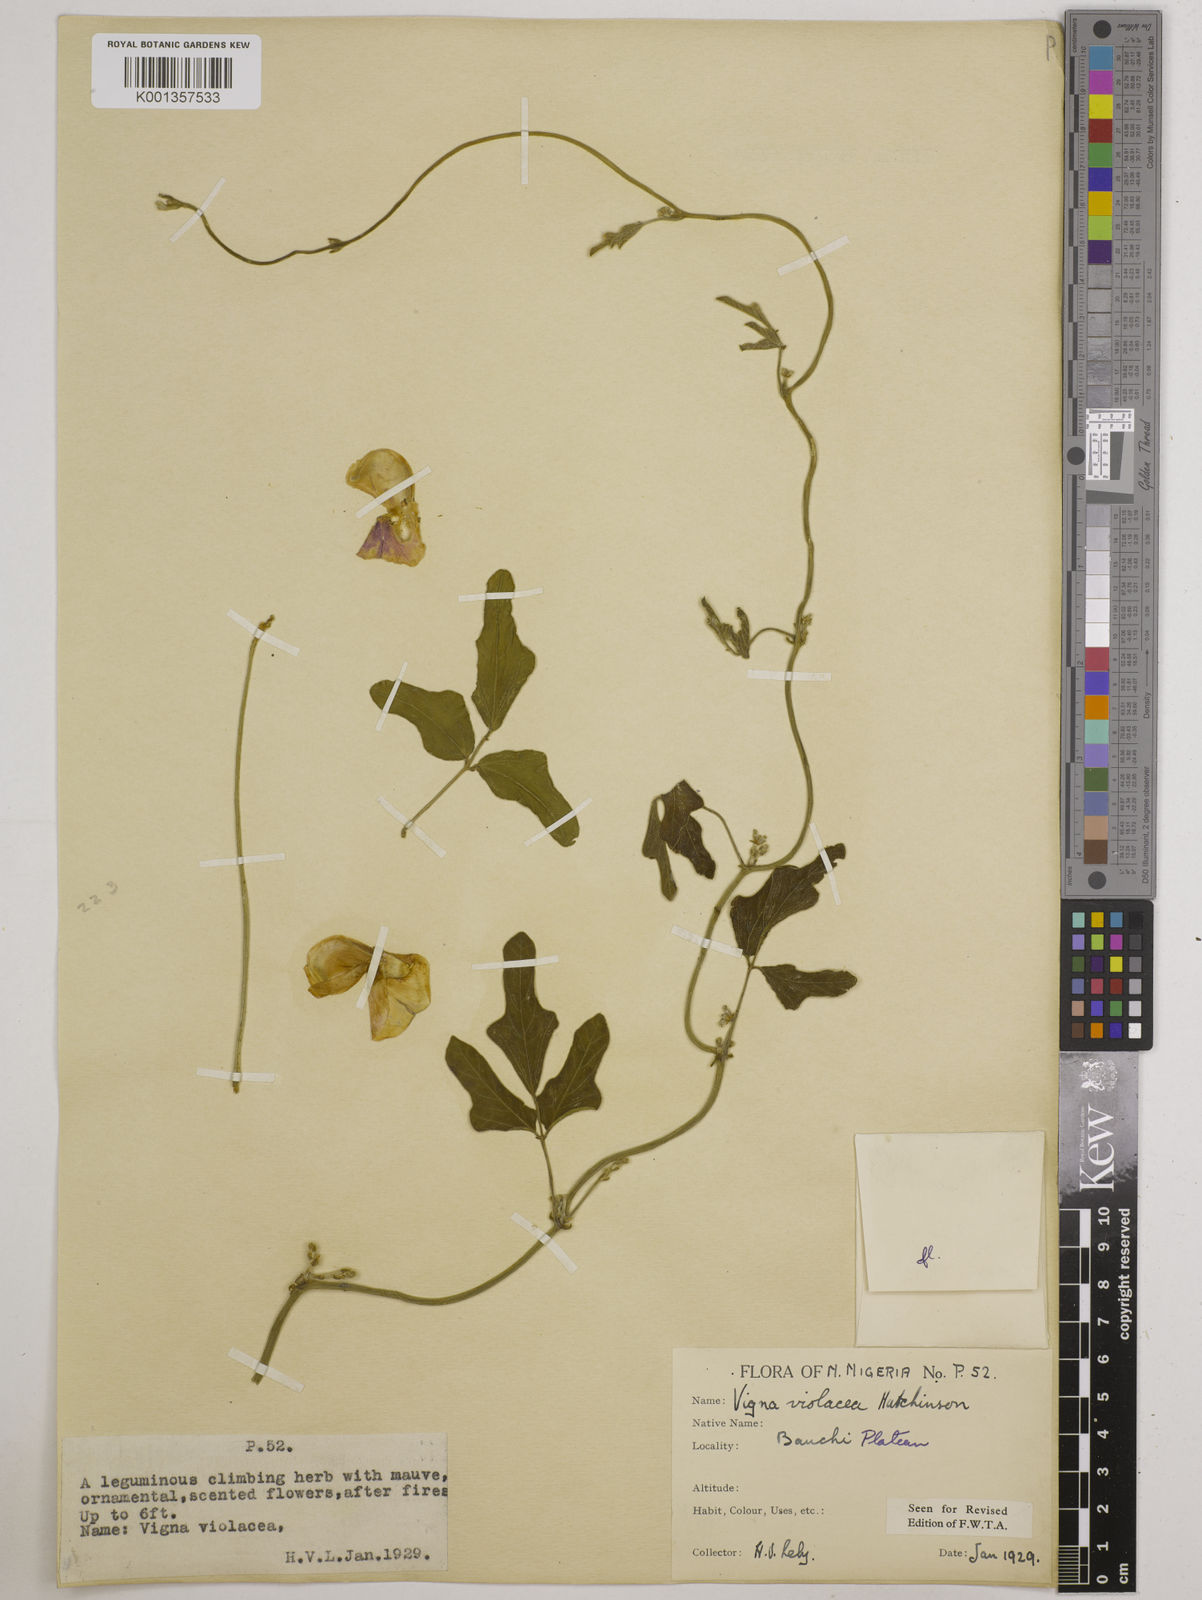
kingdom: Plantae
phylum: Tracheophyta
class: Magnoliopsida
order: Fabales
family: Fabaceae
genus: Vigna
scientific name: Vigna frutescens
